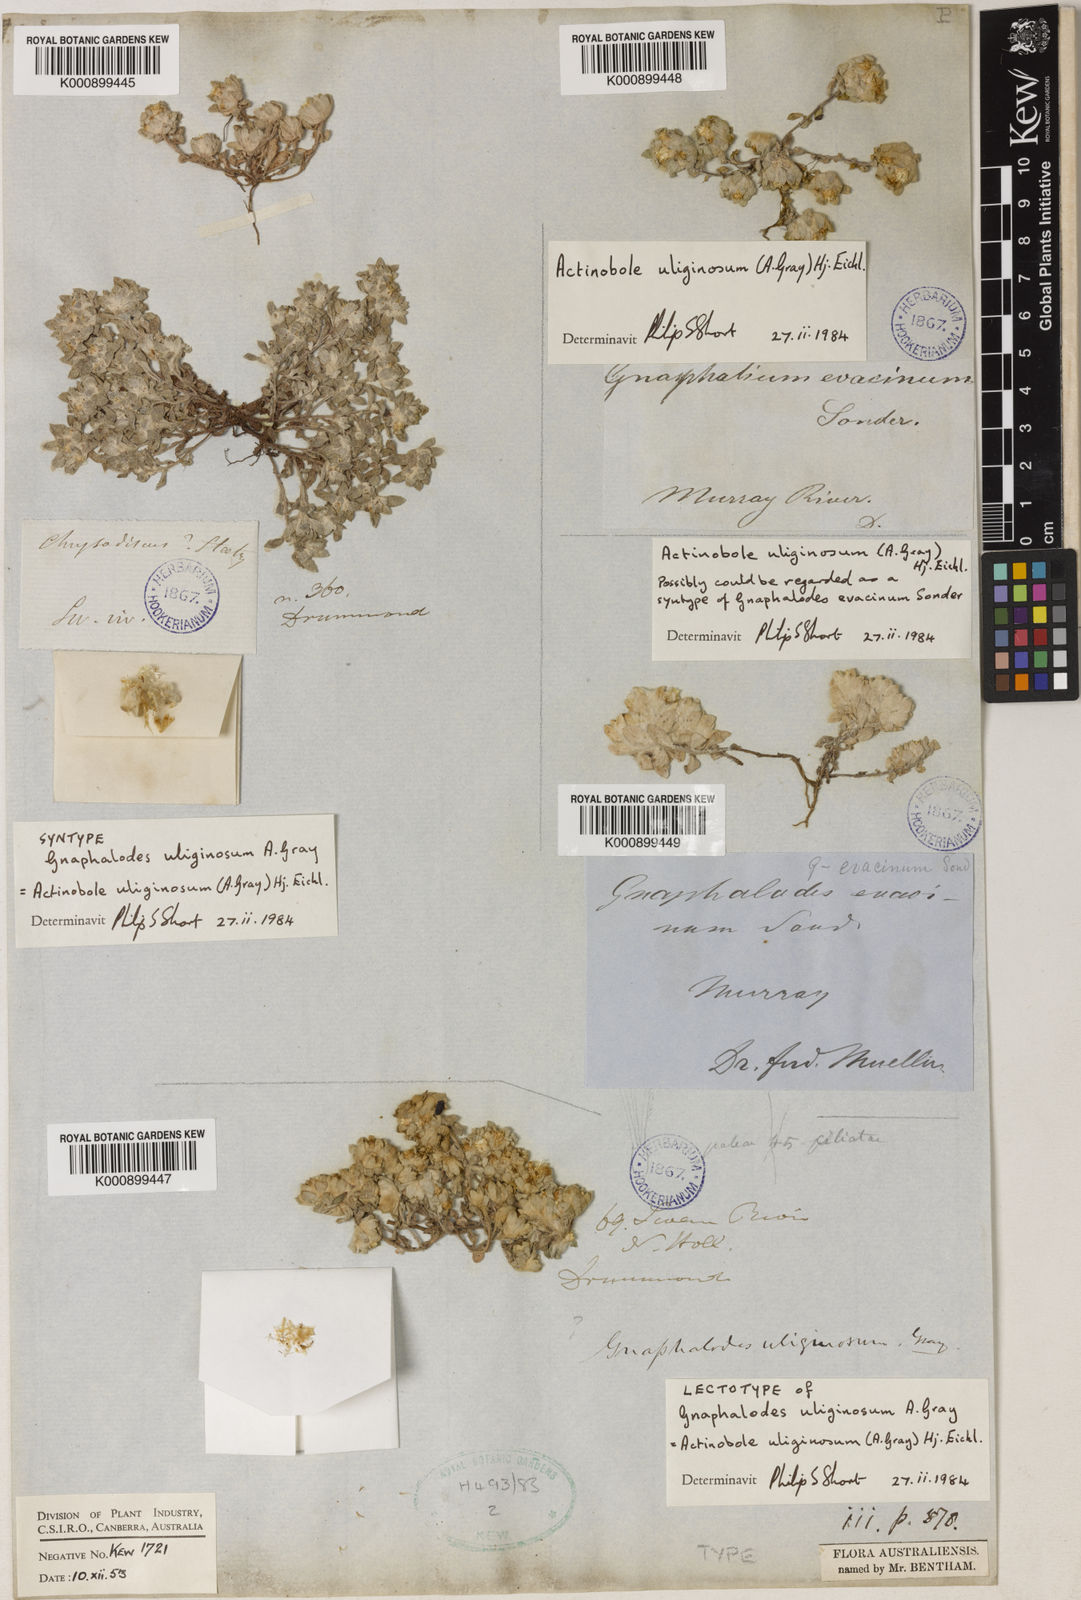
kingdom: Plantae
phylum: Tracheophyta
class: Magnoliopsida
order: Asterales
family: Asteraceae
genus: Actinobole
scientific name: Actinobole uliginosum
